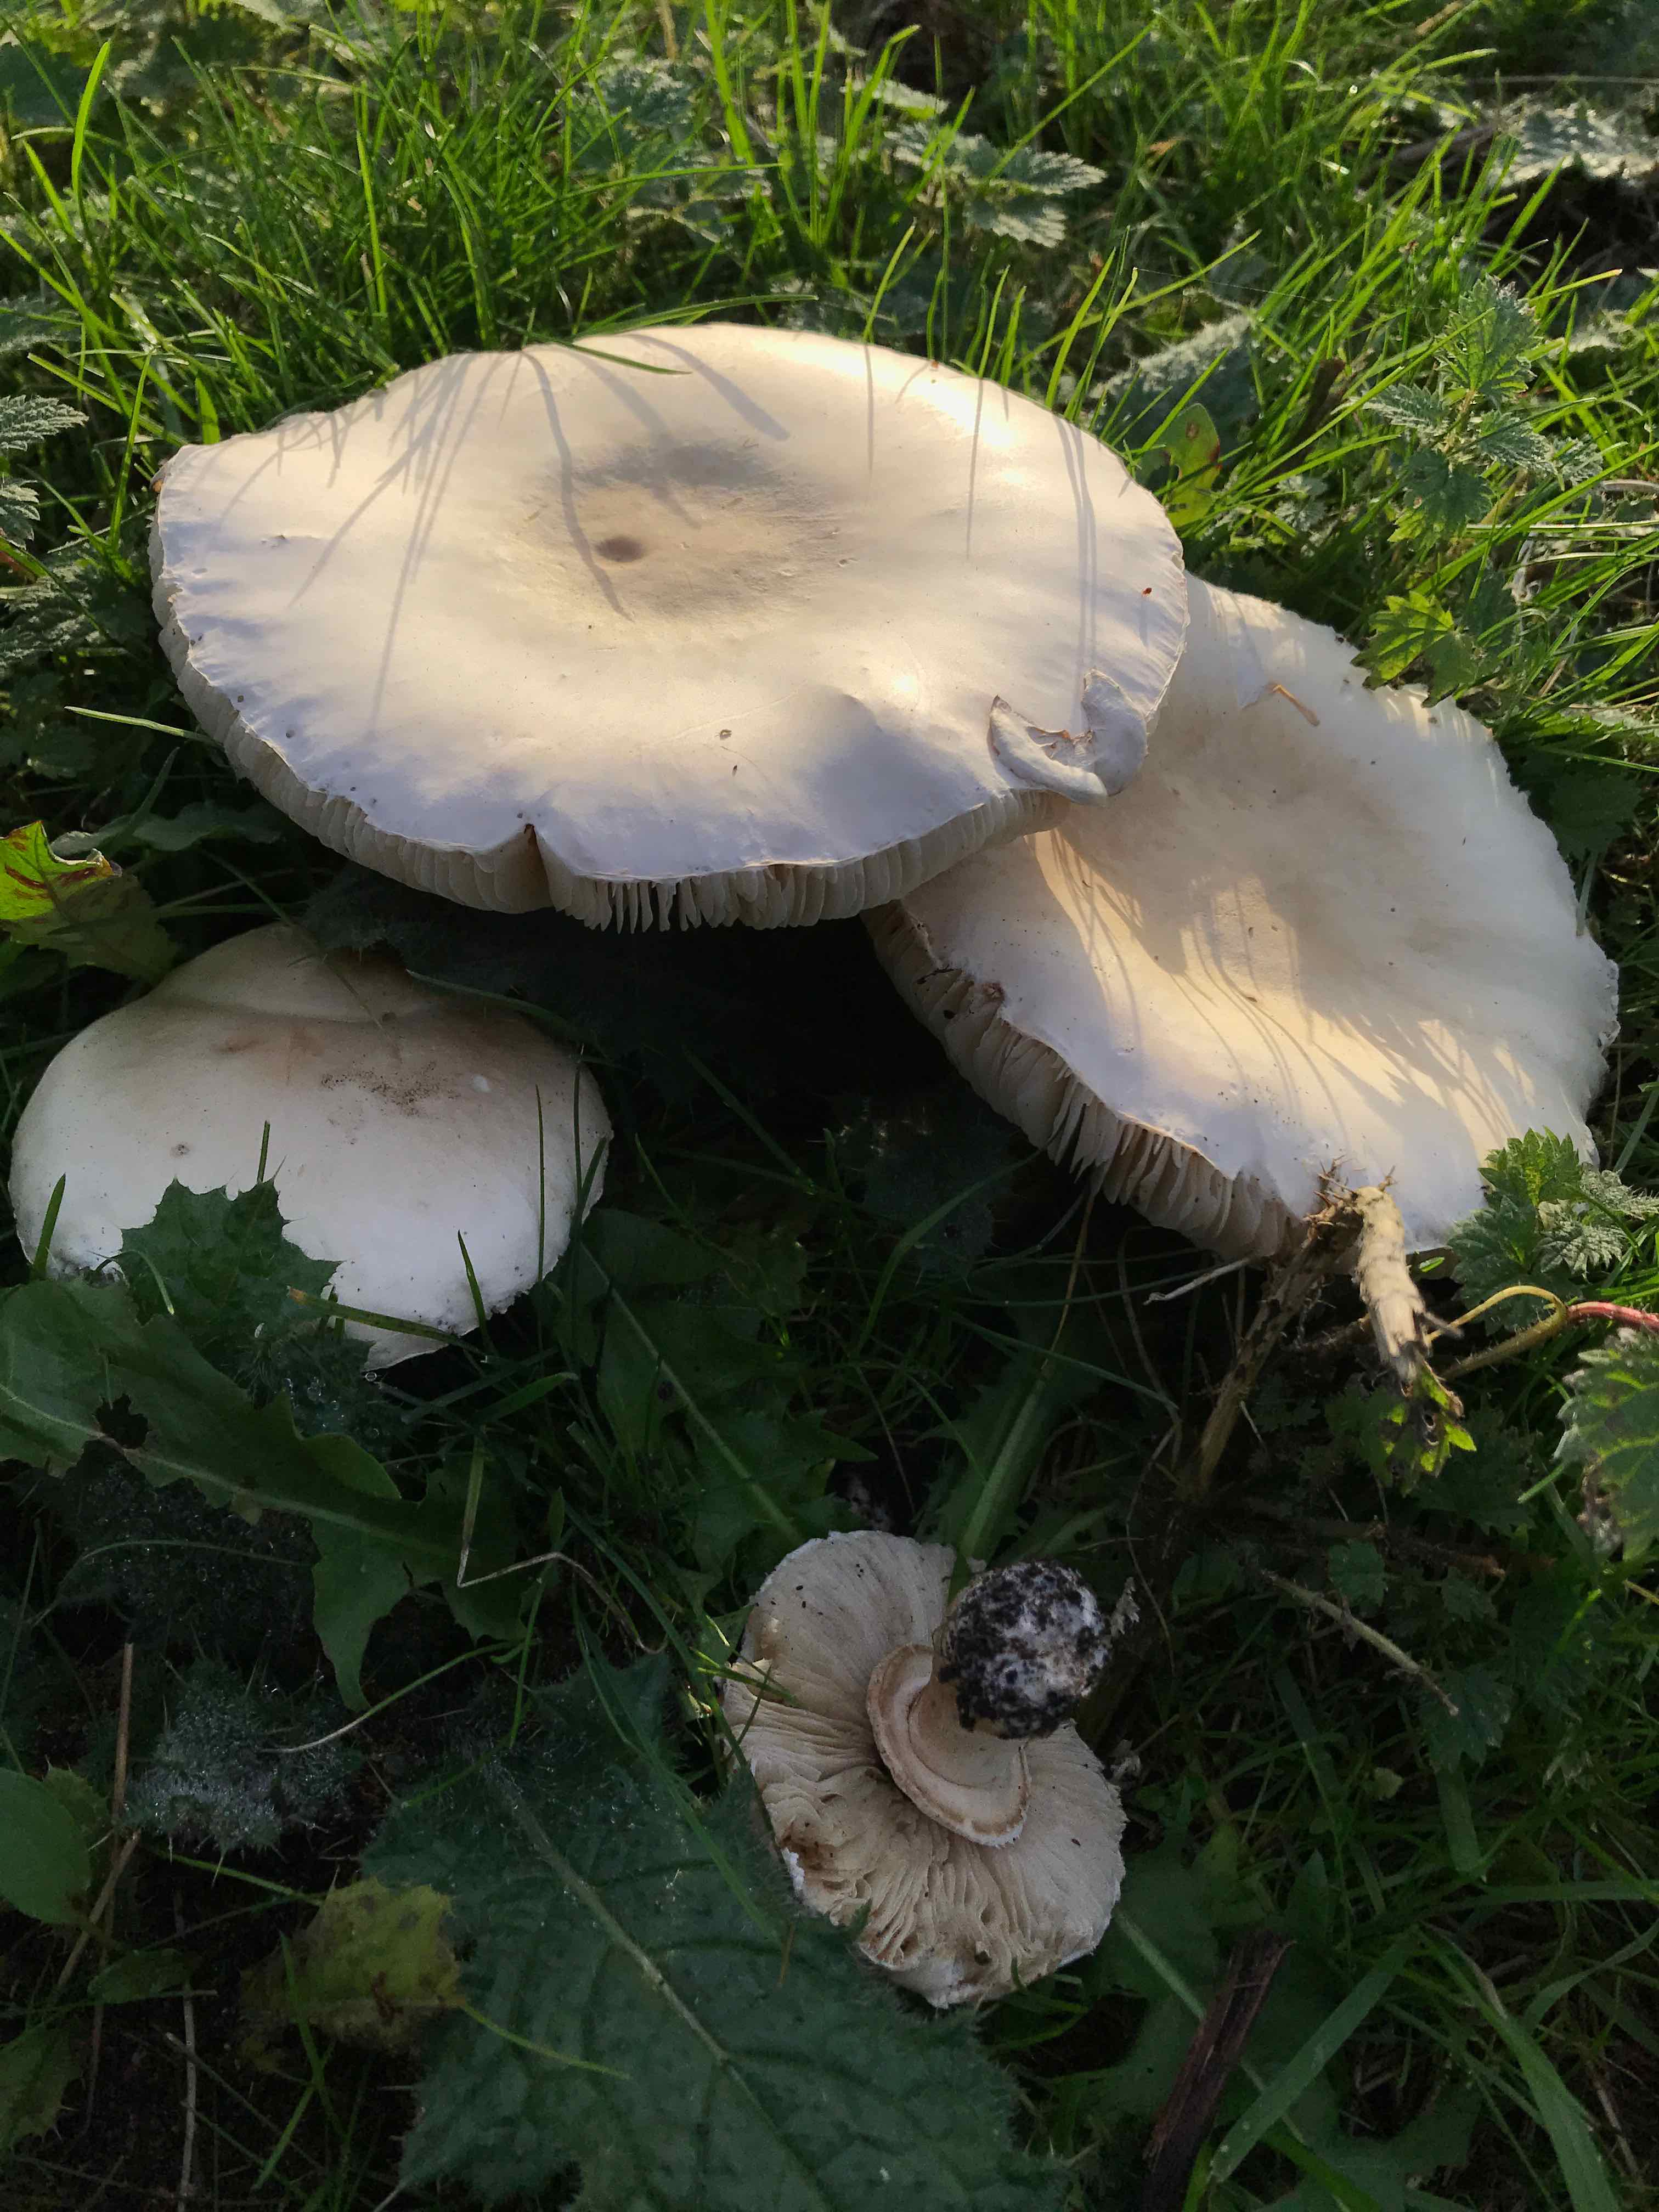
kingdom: Fungi
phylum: Basidiomycota
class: Agaricomycetes
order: Agaricales
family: Agaricaceae
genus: Leucoagaricus
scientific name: Leucoagaricus leucothites
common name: rosabladet silkehat
